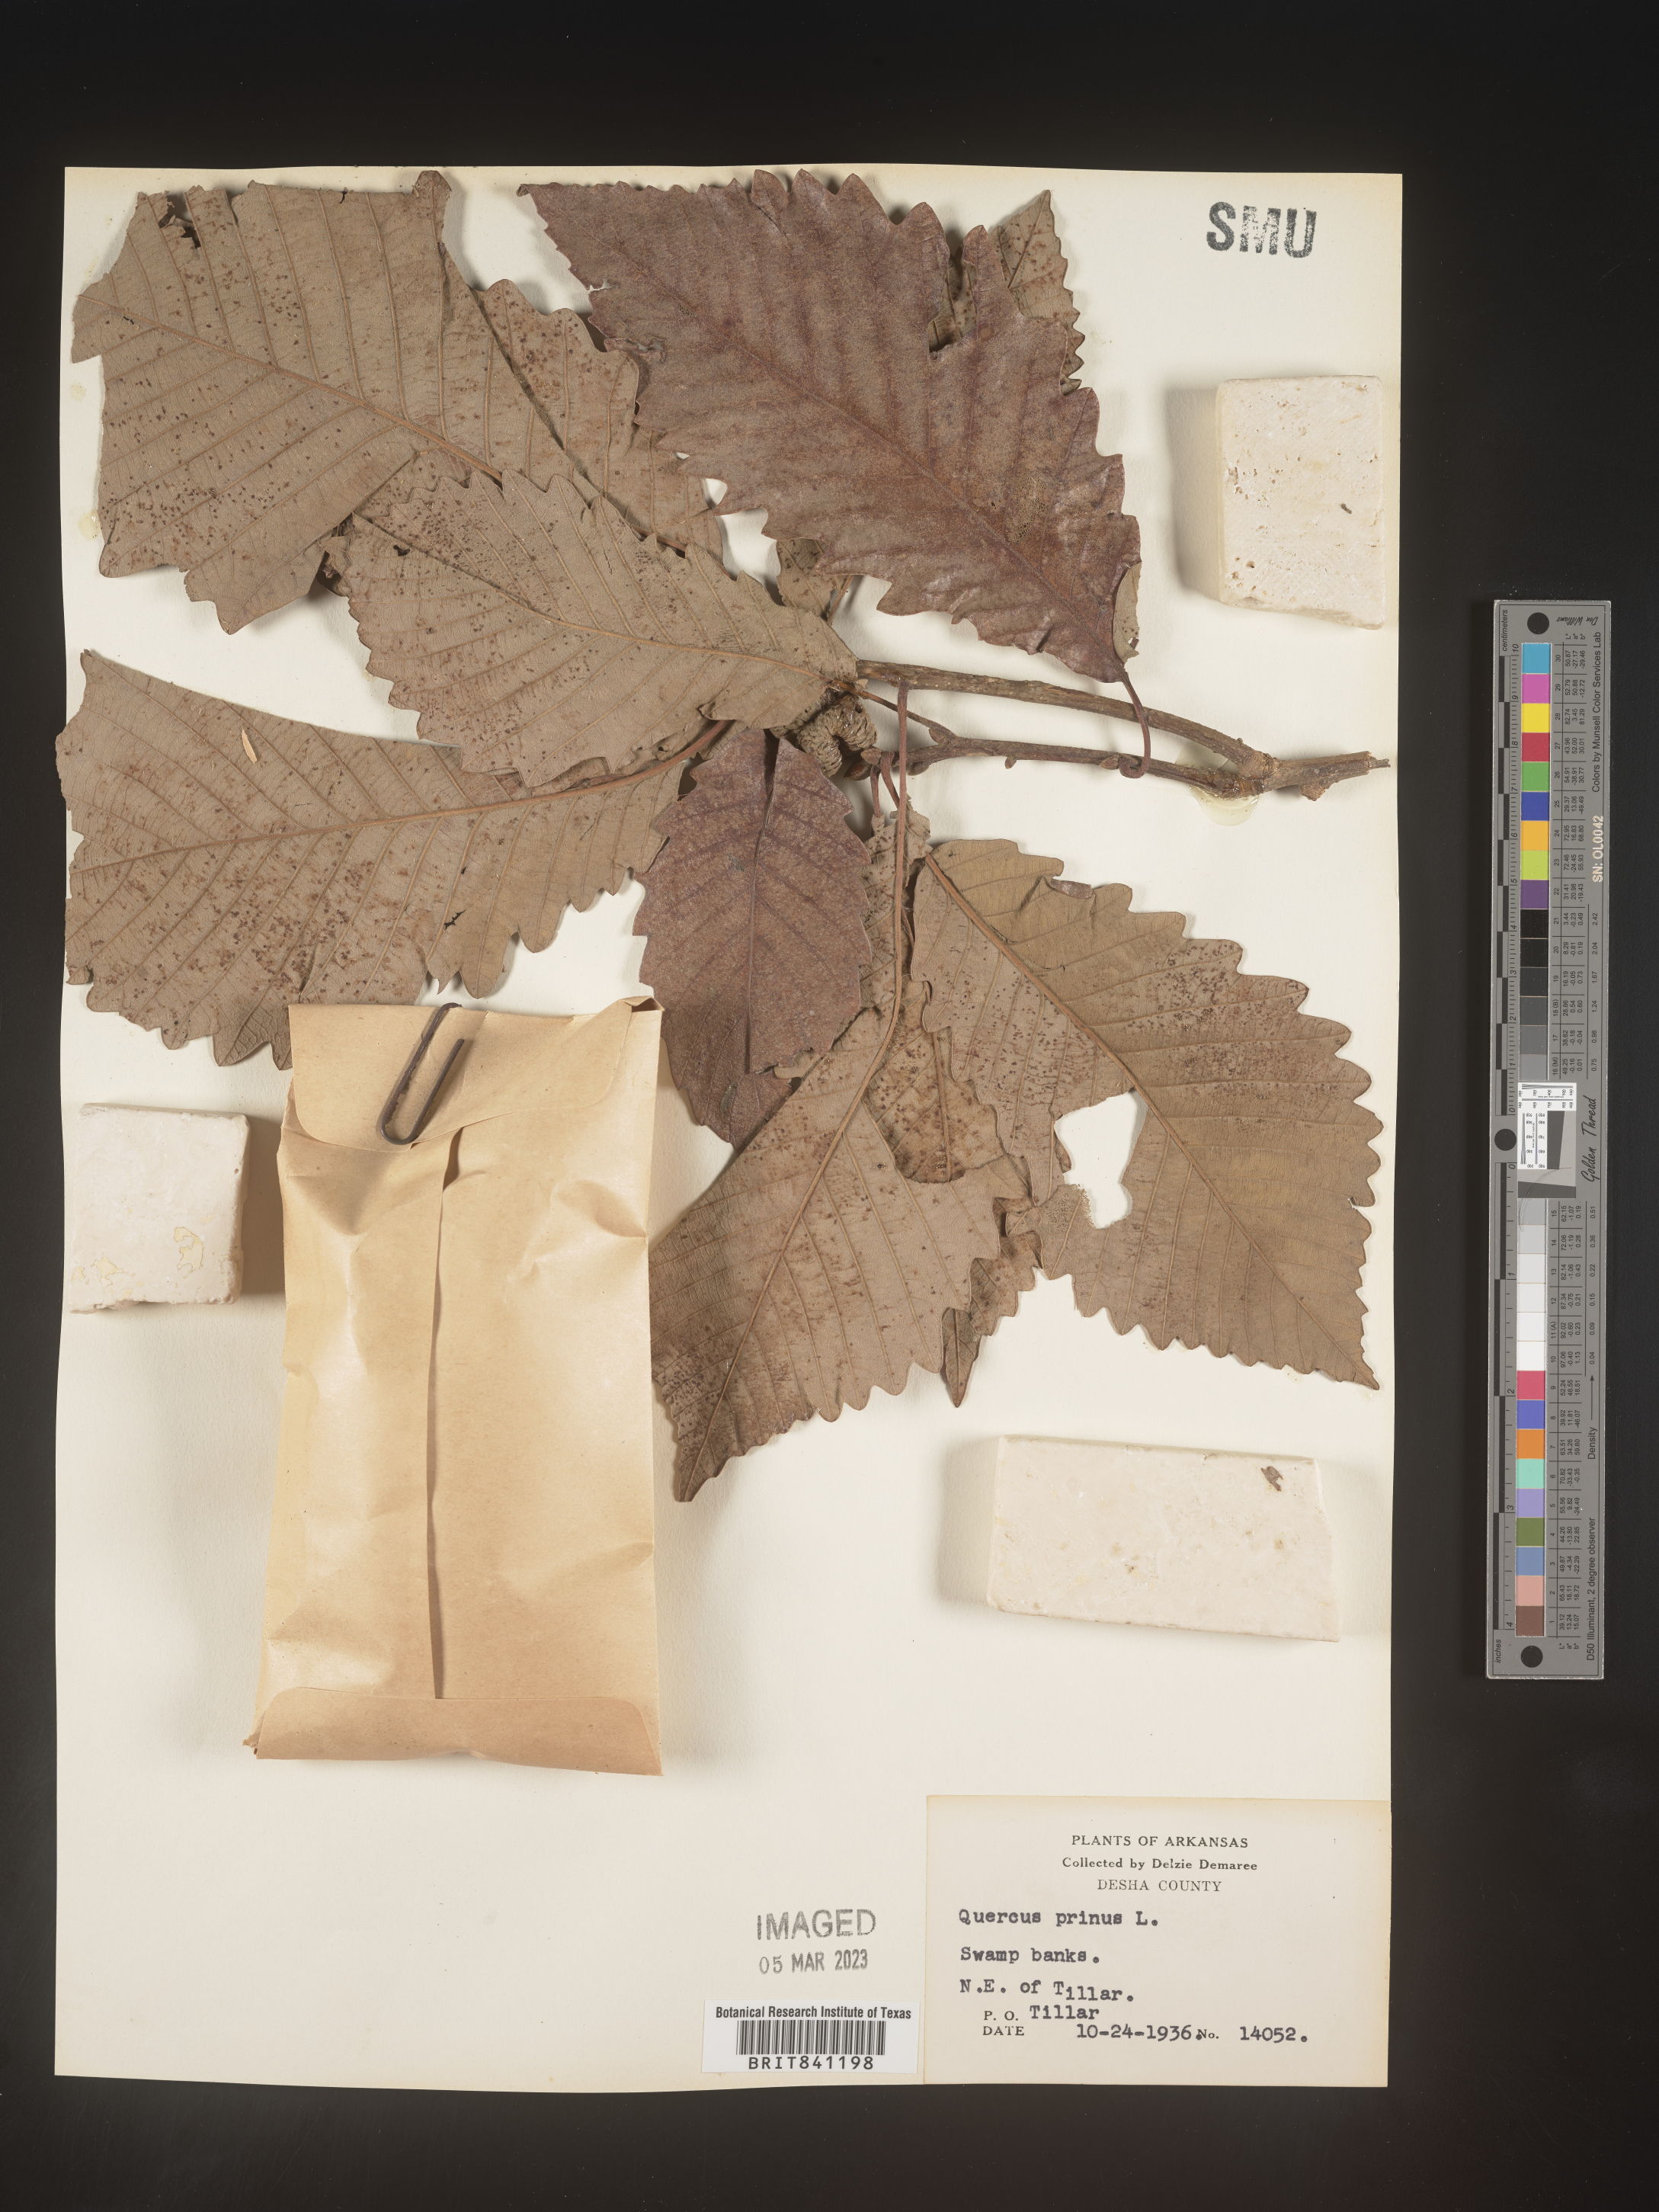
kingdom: Plantae
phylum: Tracheophyta
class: Magnoliopsida
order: Fagales
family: Fagaceae
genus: Quercus
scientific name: Quercus michauxii
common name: Swamp chestnut oak
